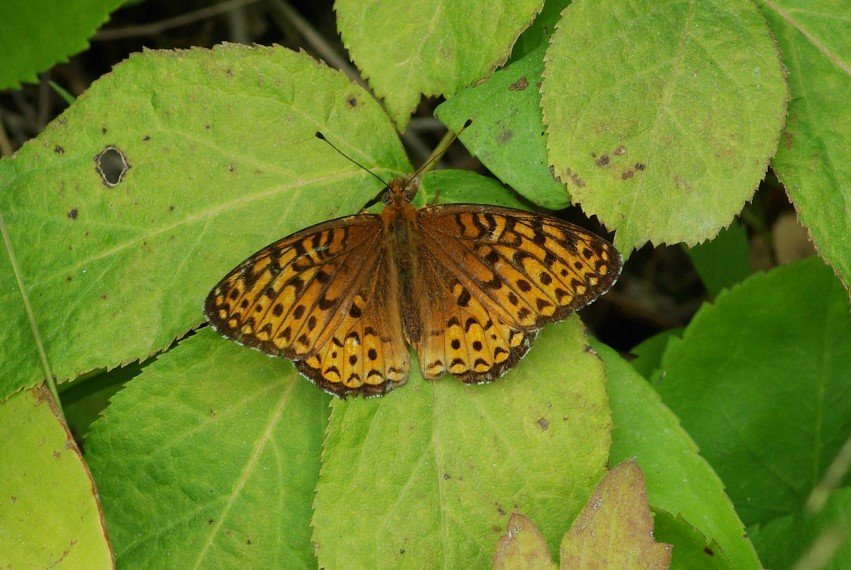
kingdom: Animalia
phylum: Arthropoda
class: Insecta
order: Lepidoptera
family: Nymphalidae
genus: Speyeria
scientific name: Speyeria atlantis
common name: Atlantis Fritillary
